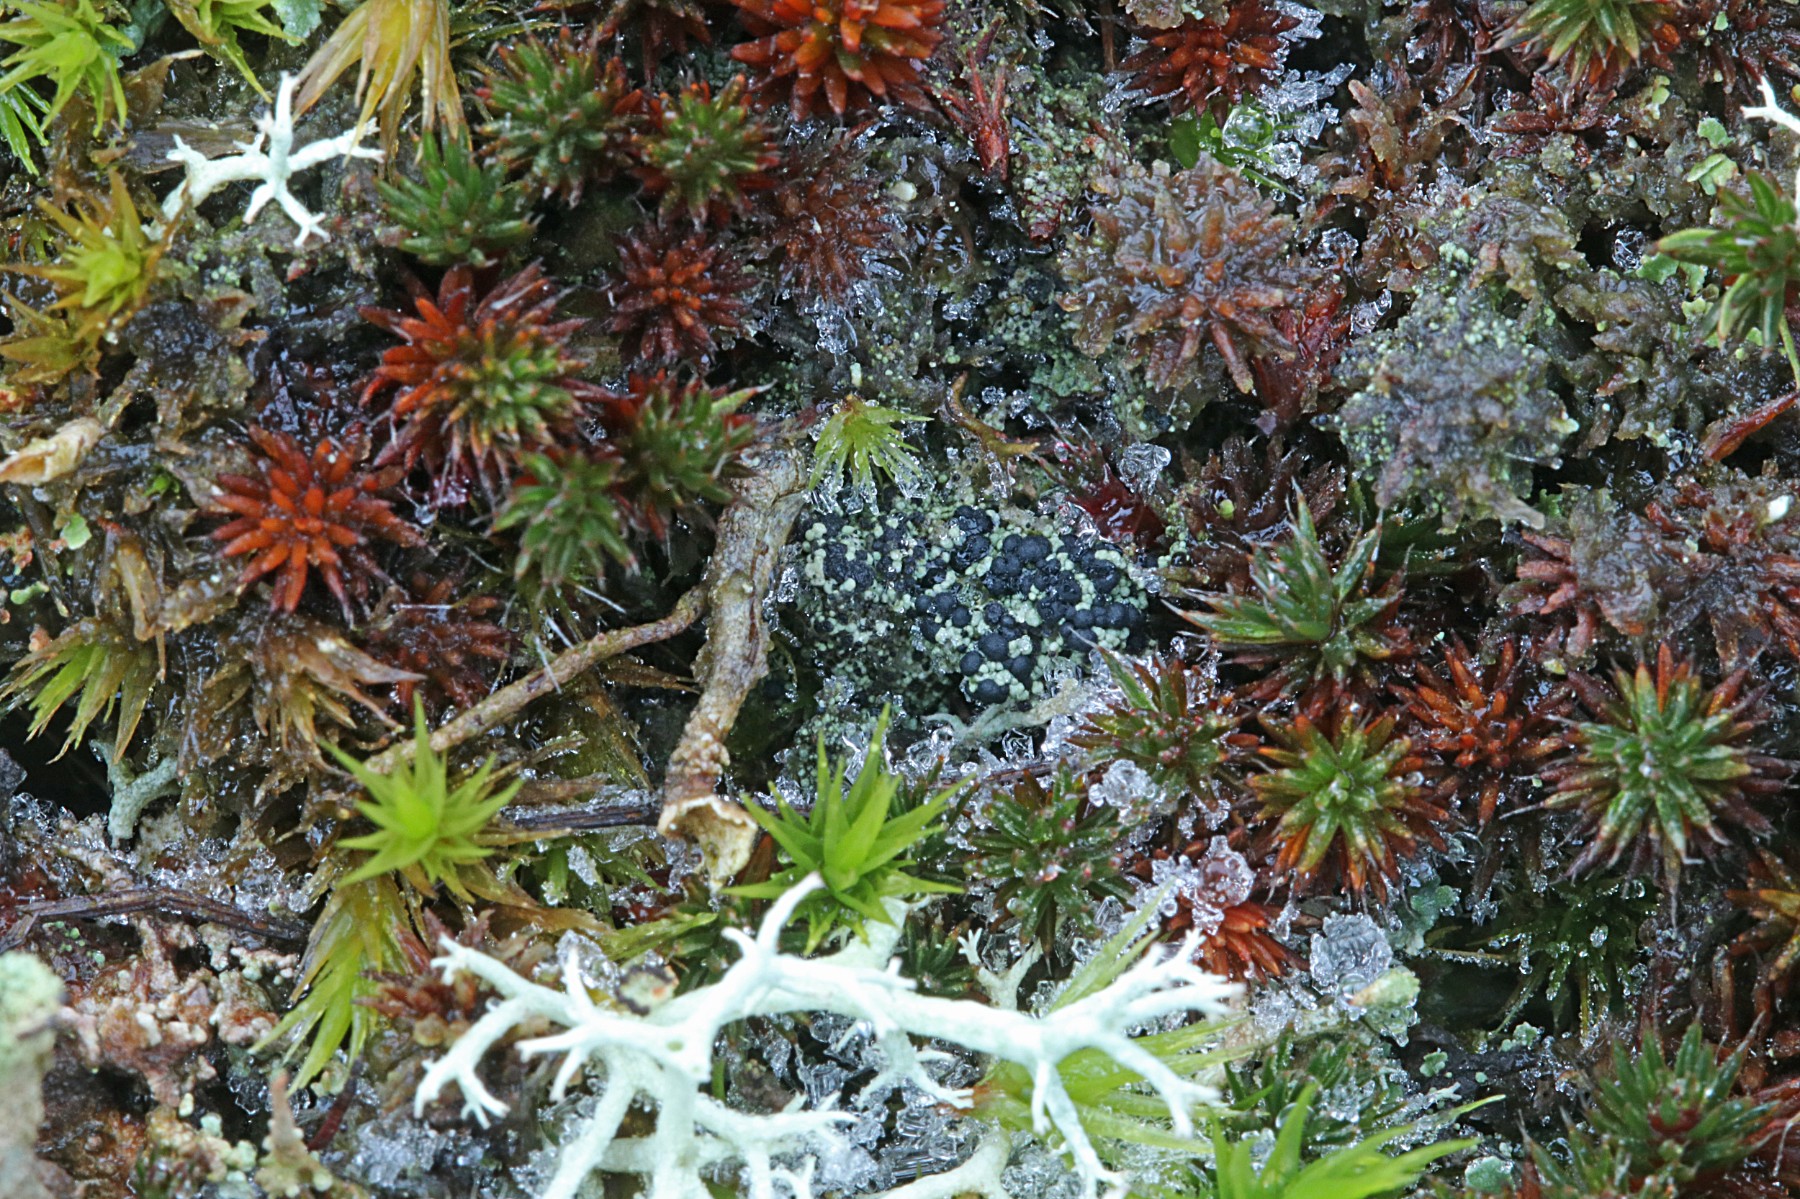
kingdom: Fungi
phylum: Ascomycota
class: Lecanoromycetes
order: Lecanorales
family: Byssolomataceae
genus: Micarea
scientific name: Micarea lignaria
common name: tørve-knaplav
